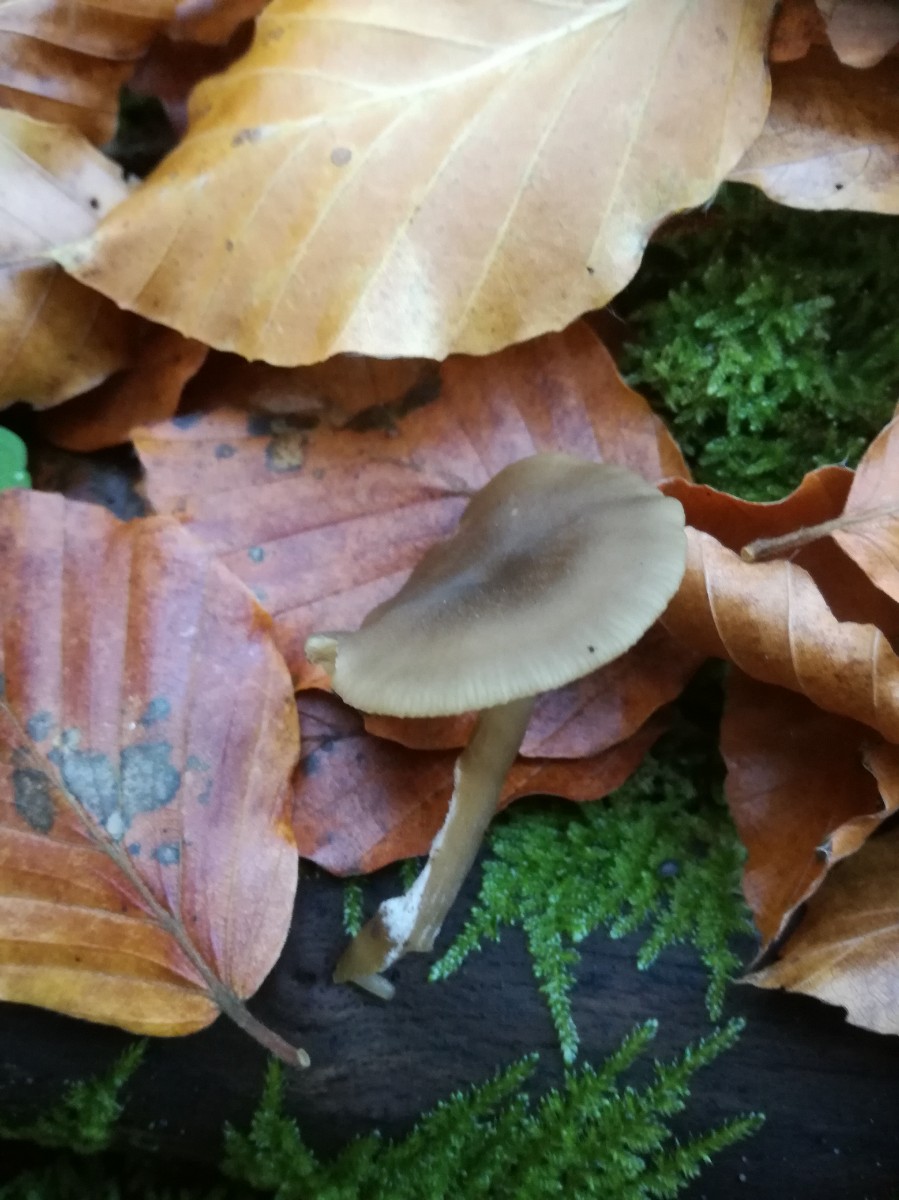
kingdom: Fungi
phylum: Basidiomycota
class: Agaricomycetes
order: Agaricales
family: Tricholomataceae
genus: Clitocybe
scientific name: Clitocybe foetens
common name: olivengrå tragthat
